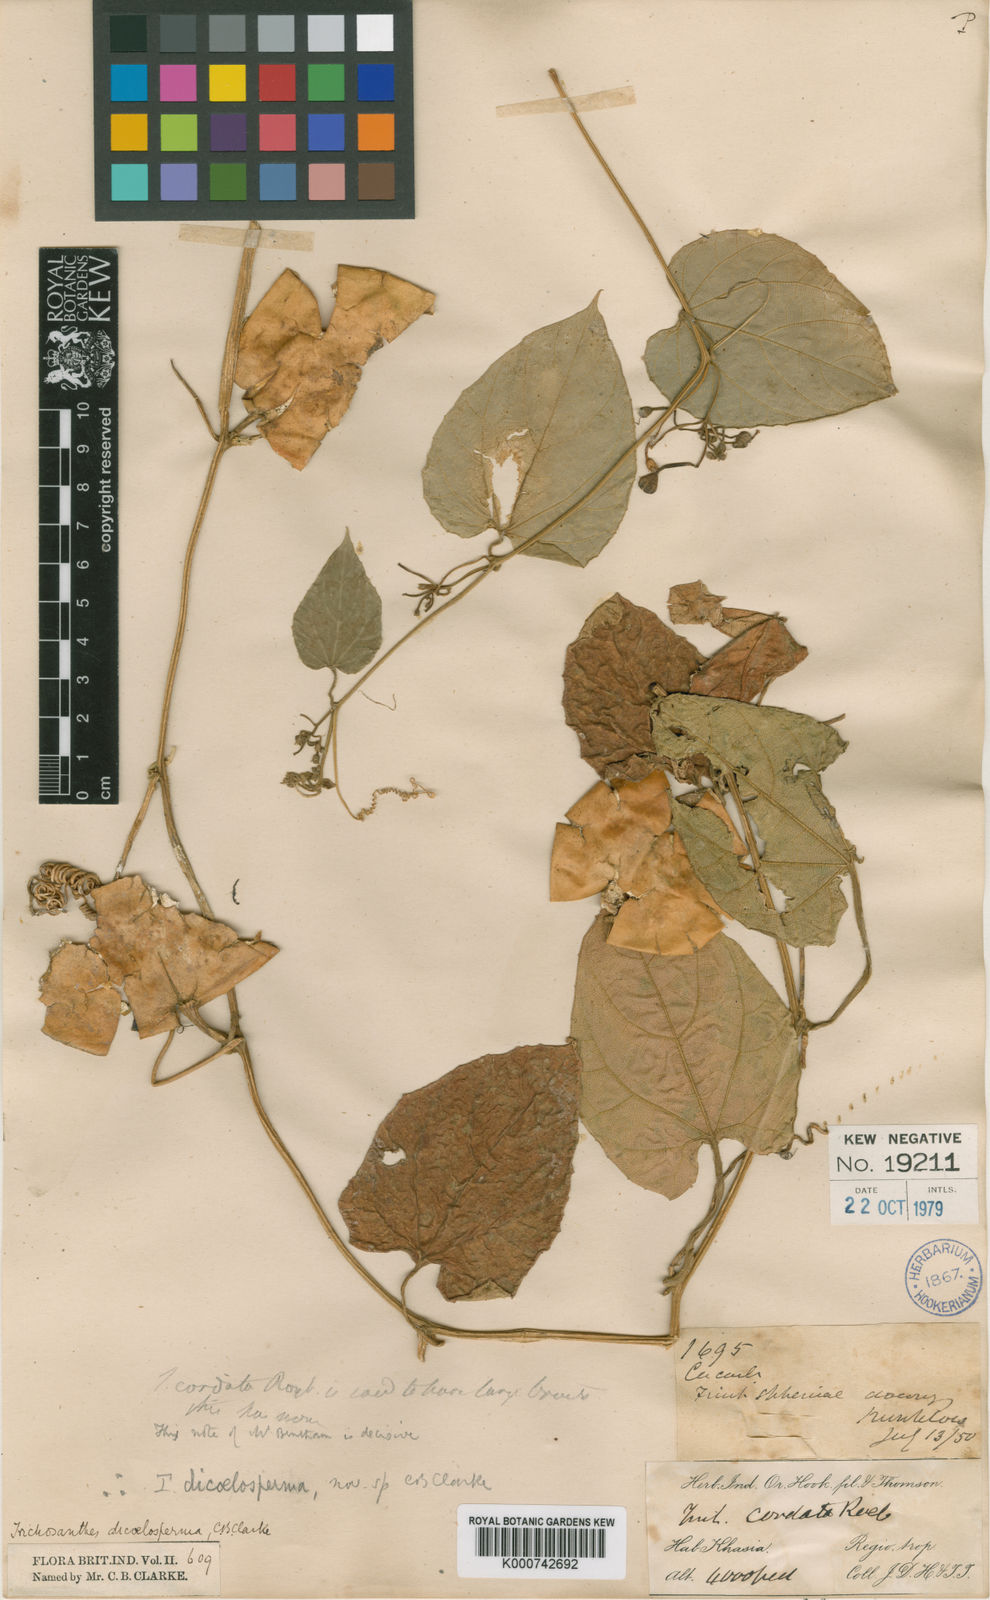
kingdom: Plantae
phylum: Tracheophyta
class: Magnoliopsida
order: Cucurbitales
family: Cucurbitaceae
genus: Trichosanthes
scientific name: Trichosanthes
